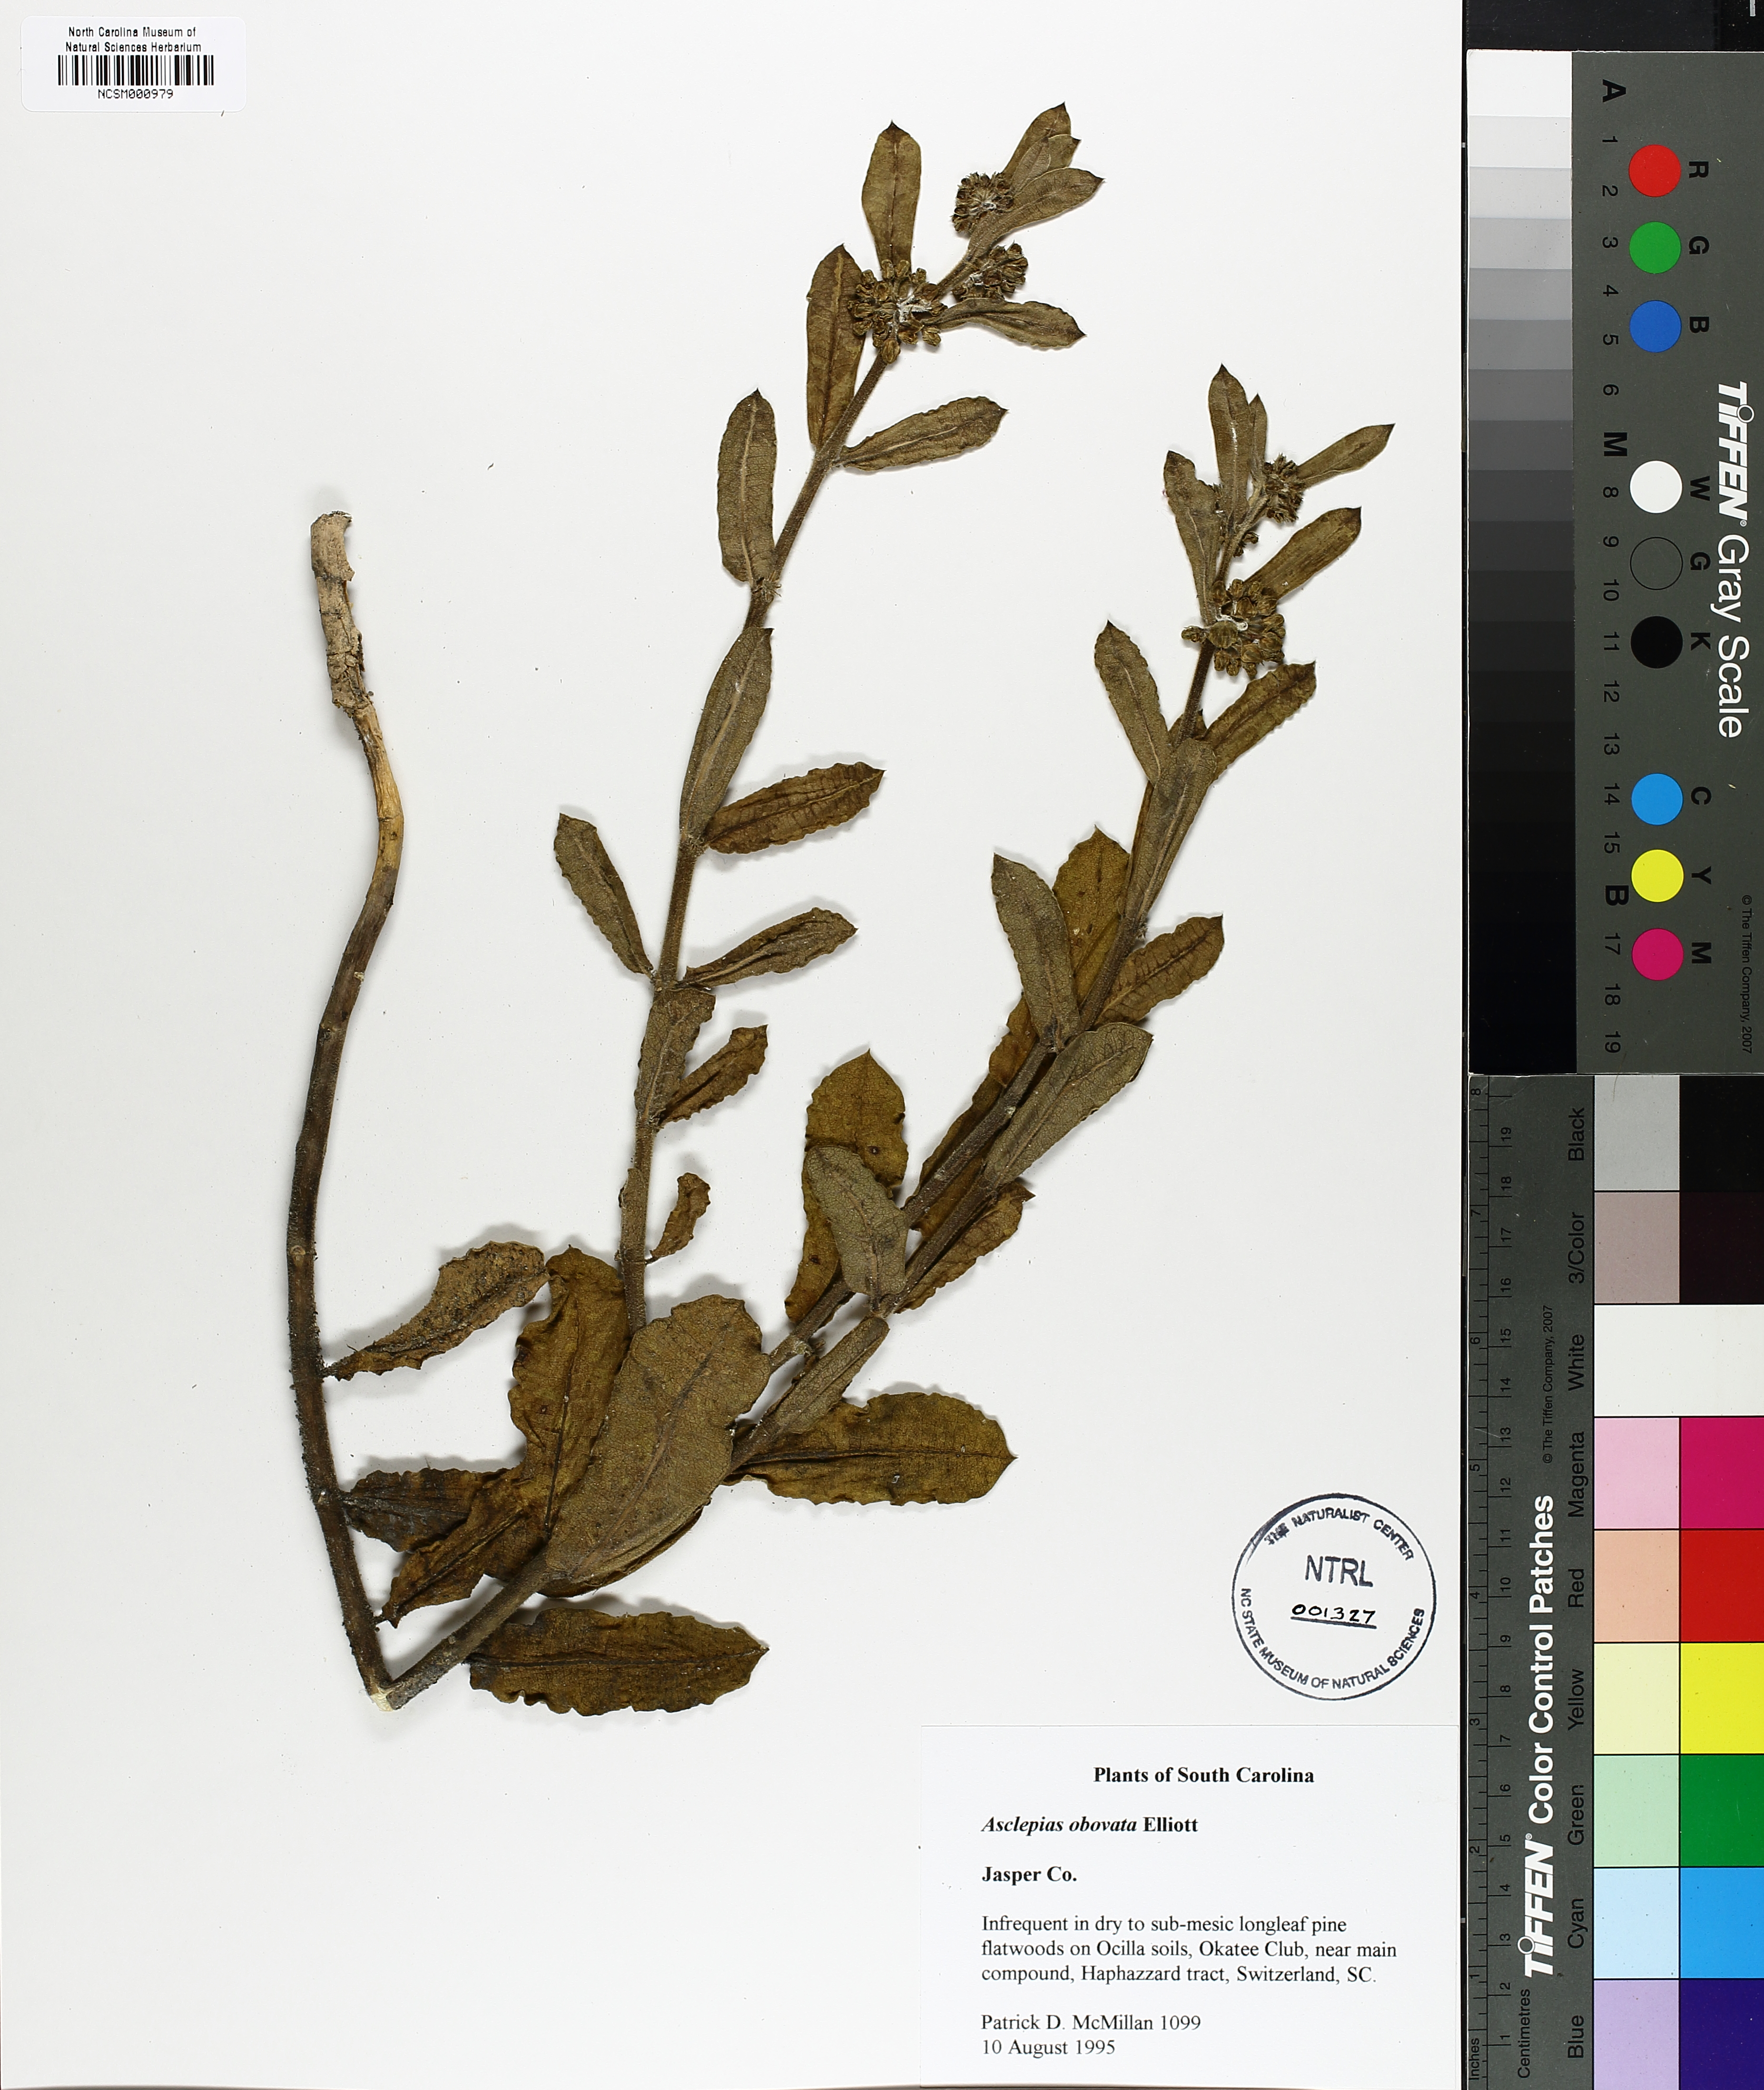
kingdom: Plantae
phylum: Tracheophyta
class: Magnoliopsida
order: Gentianales
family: Apocynaceae
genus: Asclepias
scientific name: Asclepias obovata
